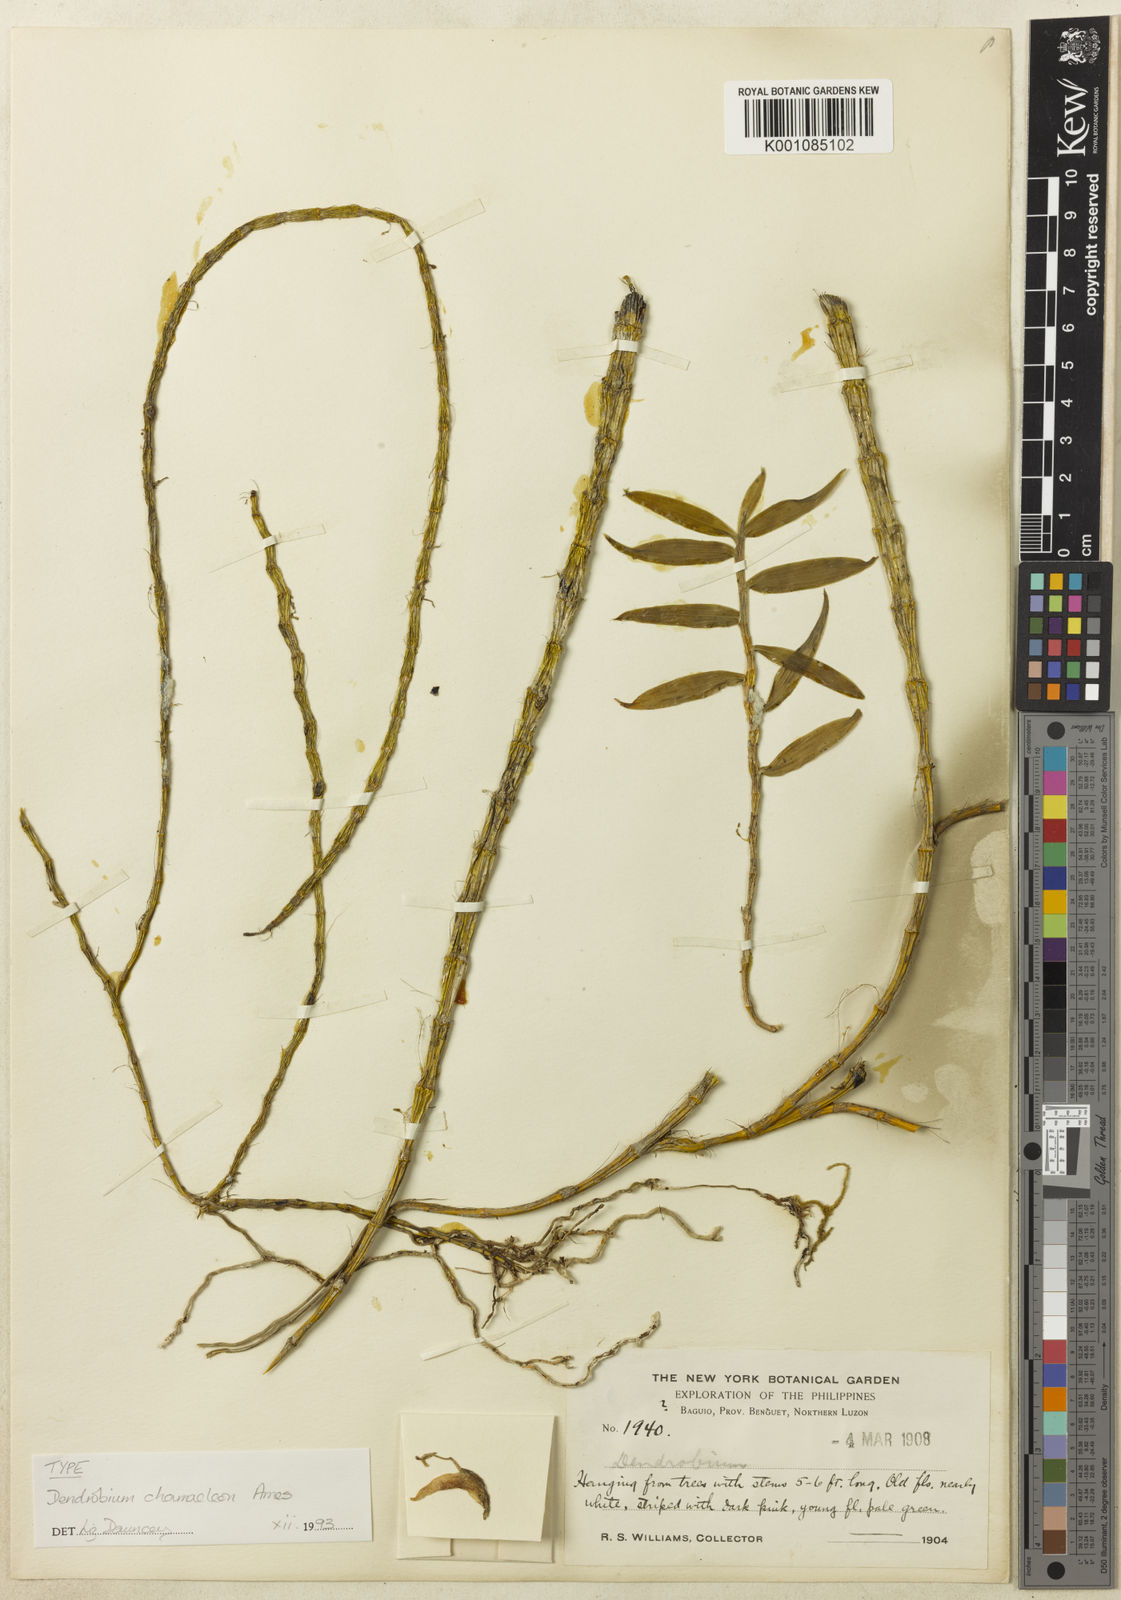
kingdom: Plantae
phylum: Tracheophyta
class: Liliopsida
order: Asparagales
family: Orchidaceae
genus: Dendrobium
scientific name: Dendrobium chameleon
